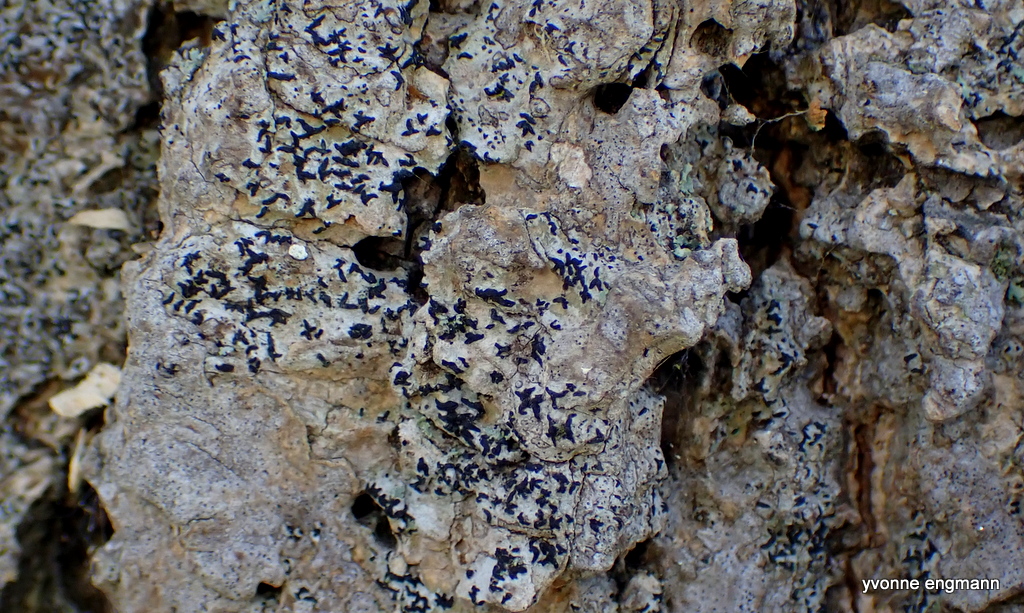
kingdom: Fungi
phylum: Ascomycota
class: Arthoniomycetes
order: Arthoniales
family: Opegraphaceae
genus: Opegrapha
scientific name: Opegrapha niveoatra
